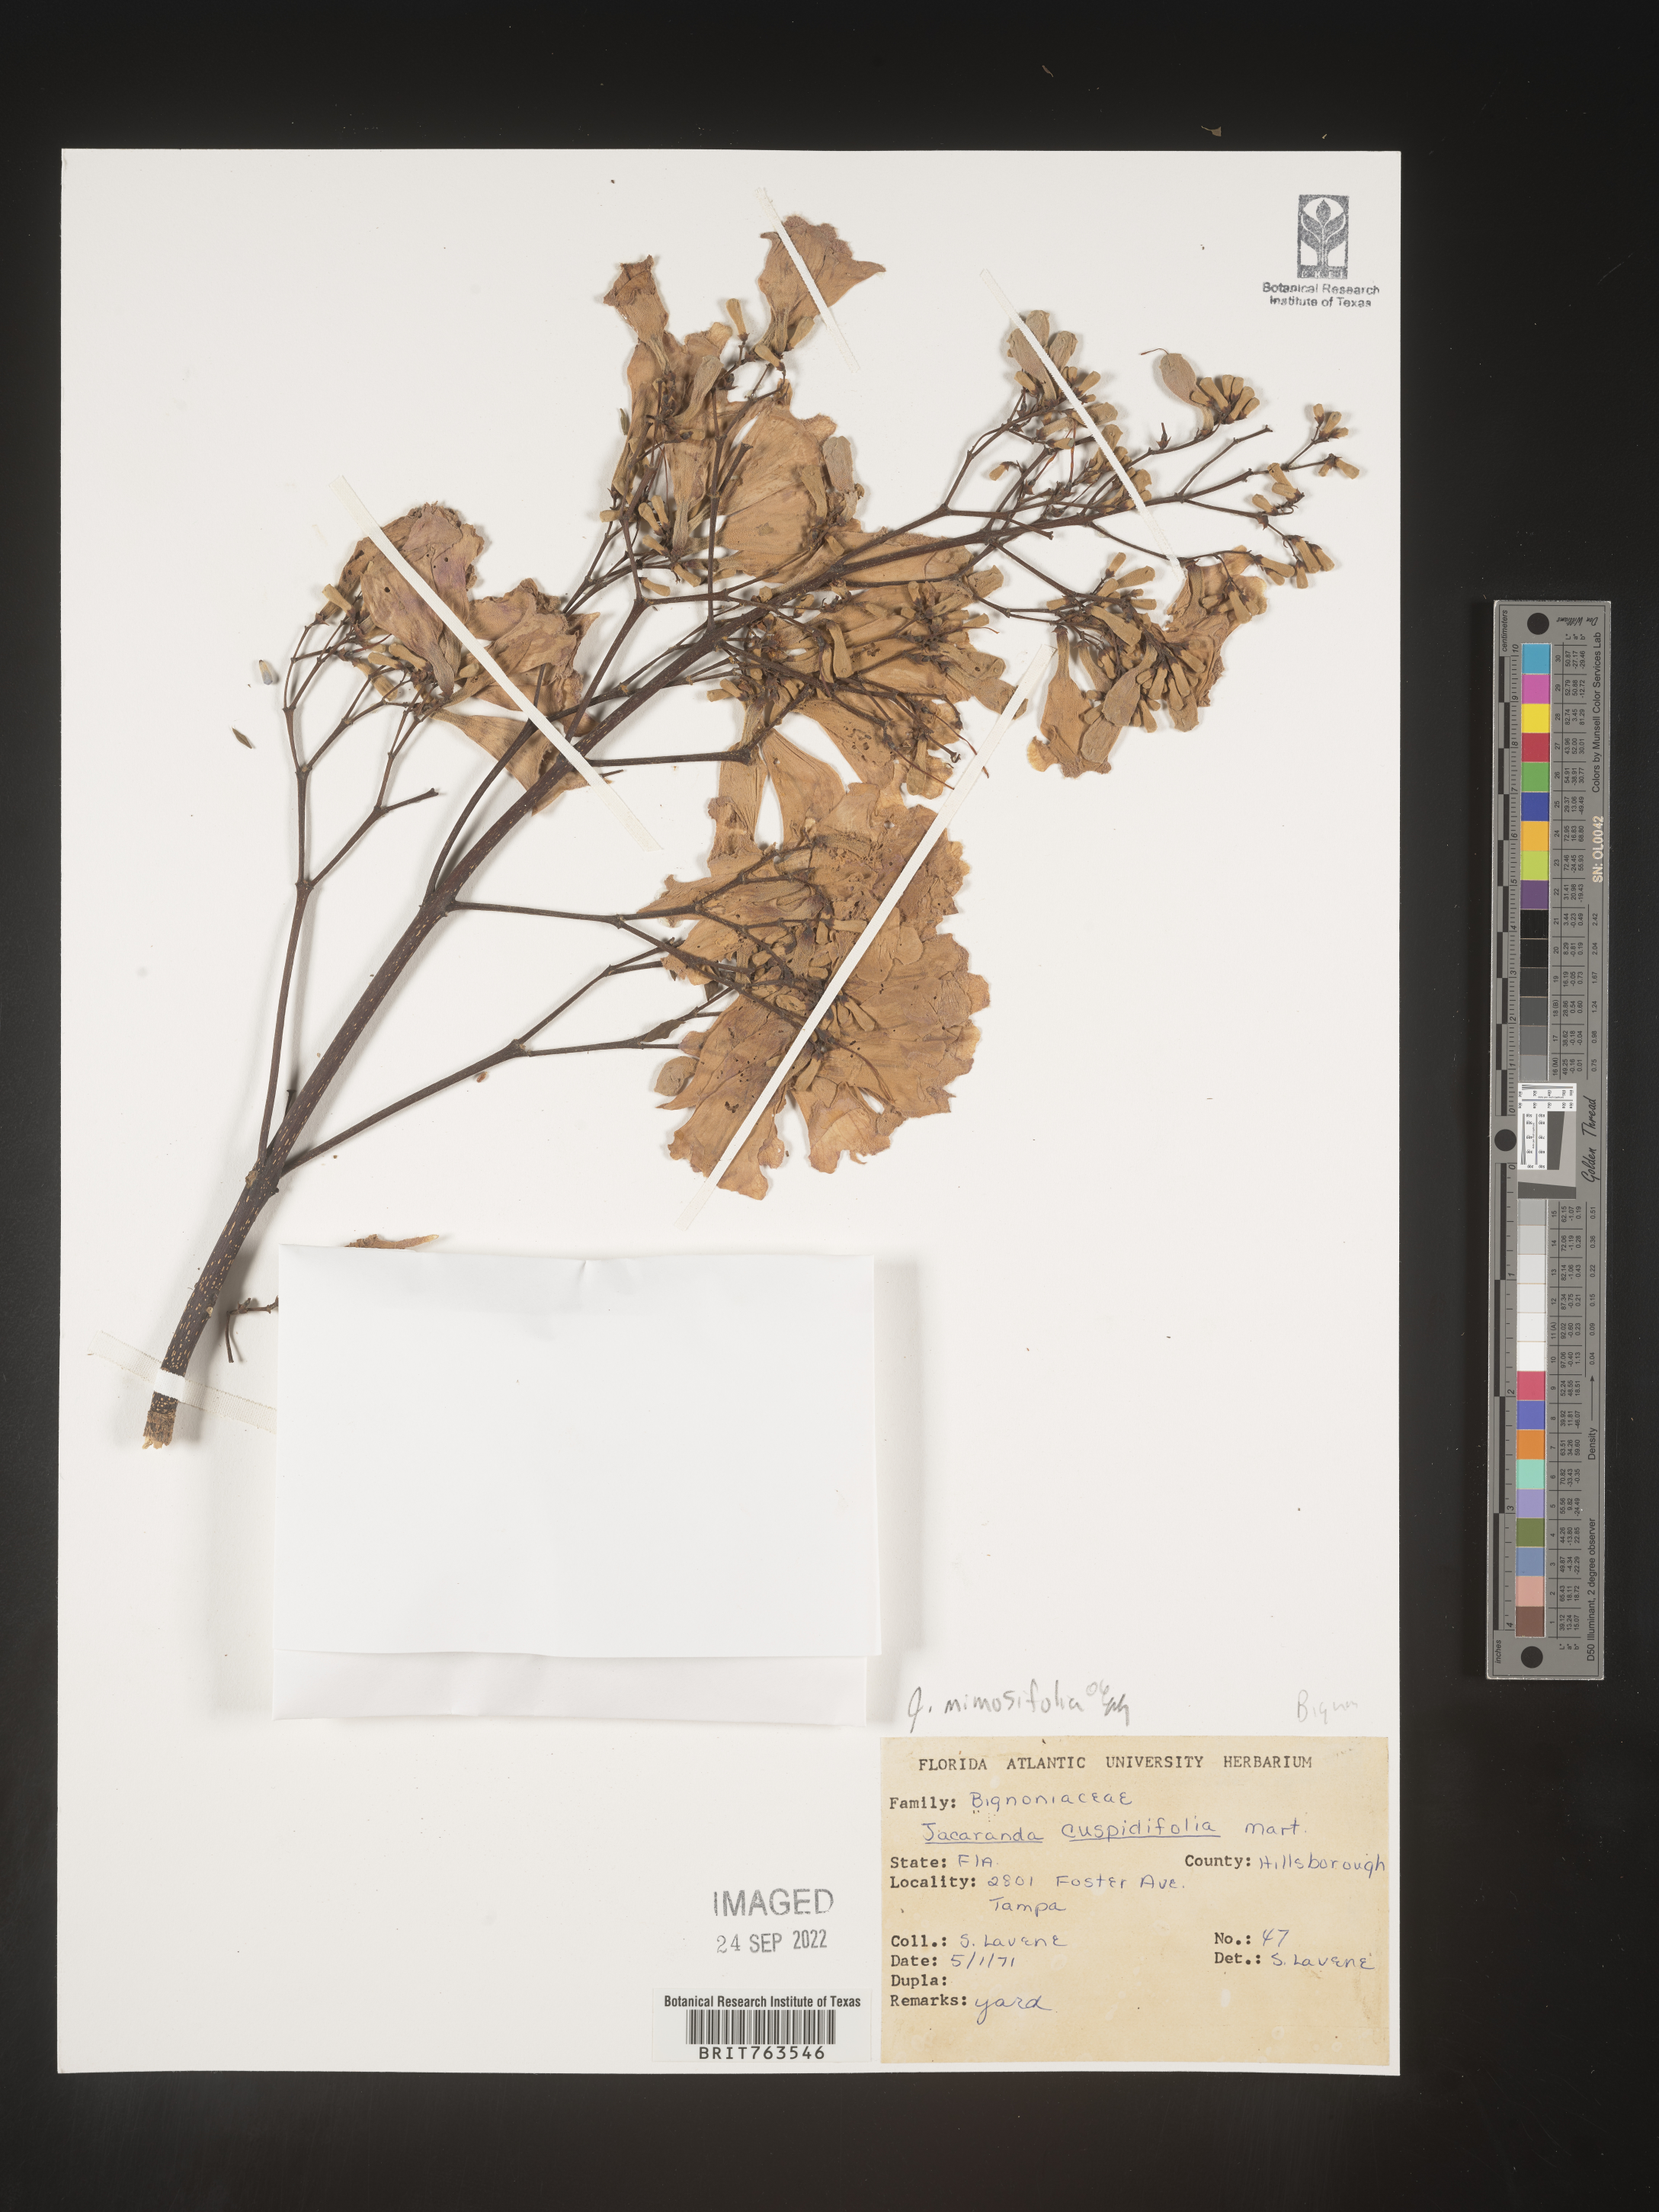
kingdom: Plantae
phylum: Tracheophyta
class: Magnoliopsida
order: Lamiales
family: Bignoniaceae
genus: Jacaranda
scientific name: Jacaranda
